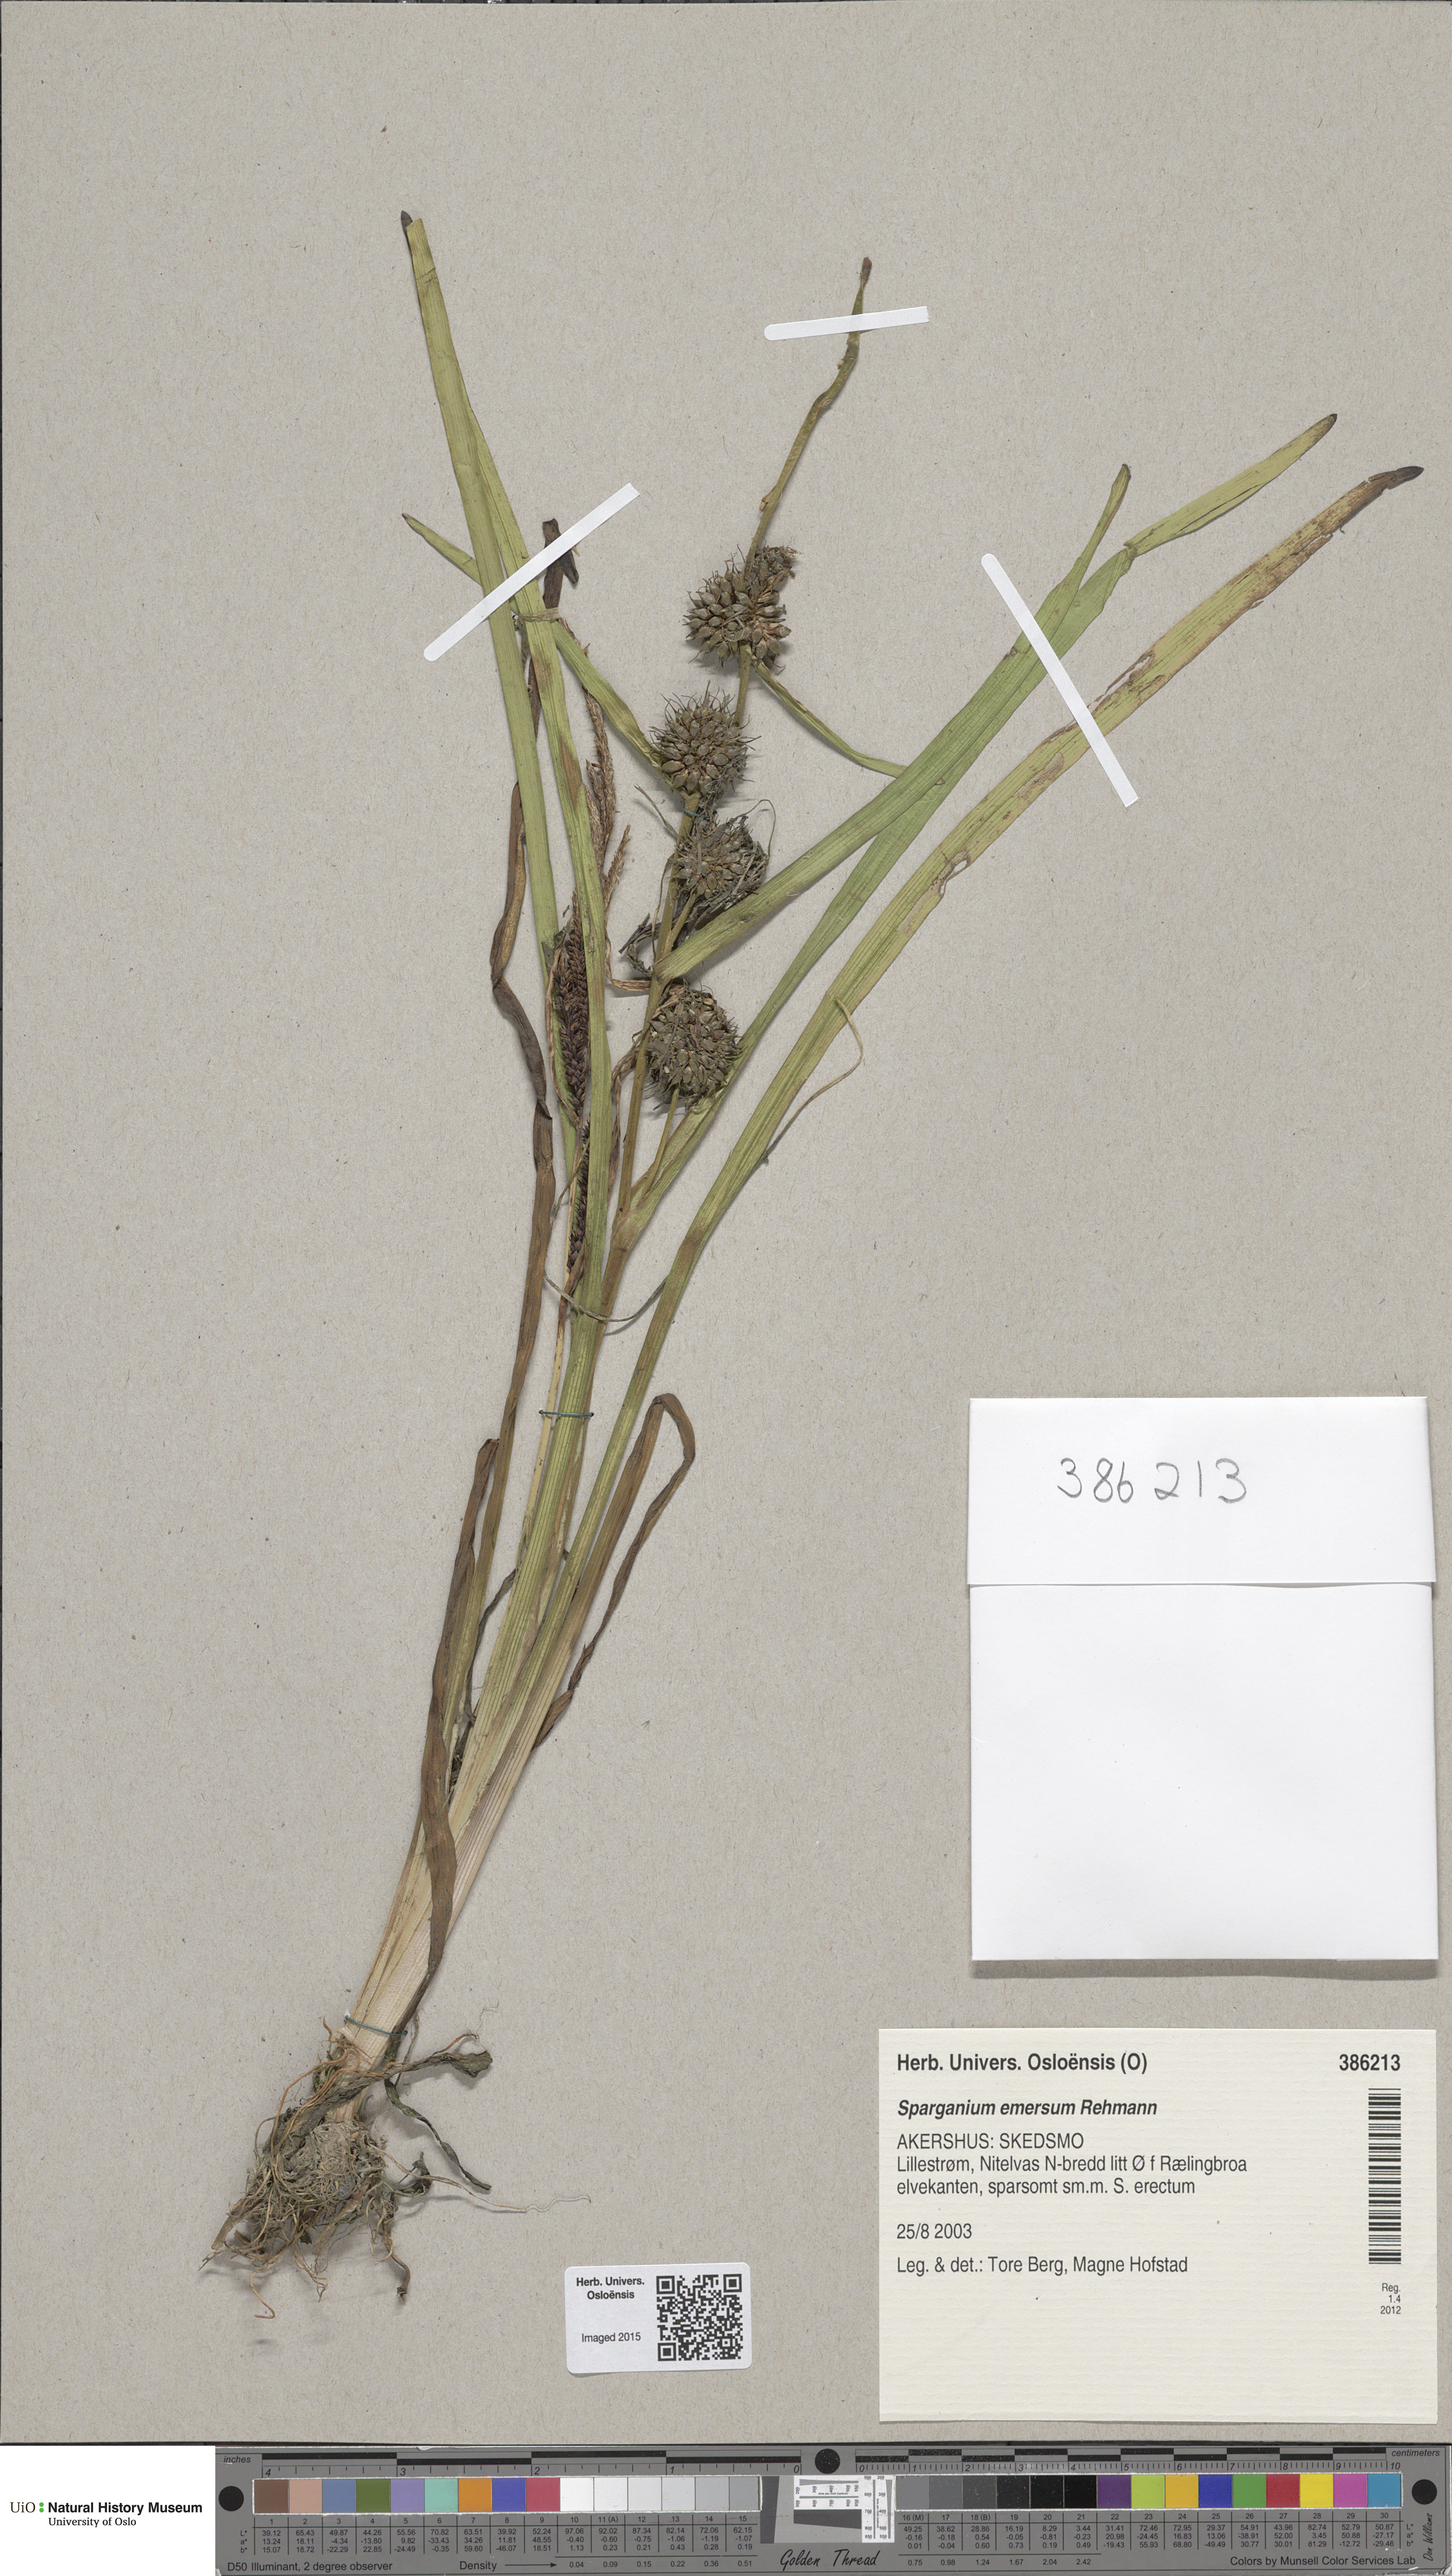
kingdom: Plantae
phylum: Tracheophyta
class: Liliopsida
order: Poales
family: Typhaceae
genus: Sparganium
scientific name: Sparganium emersum
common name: Unbranched bur-reed
